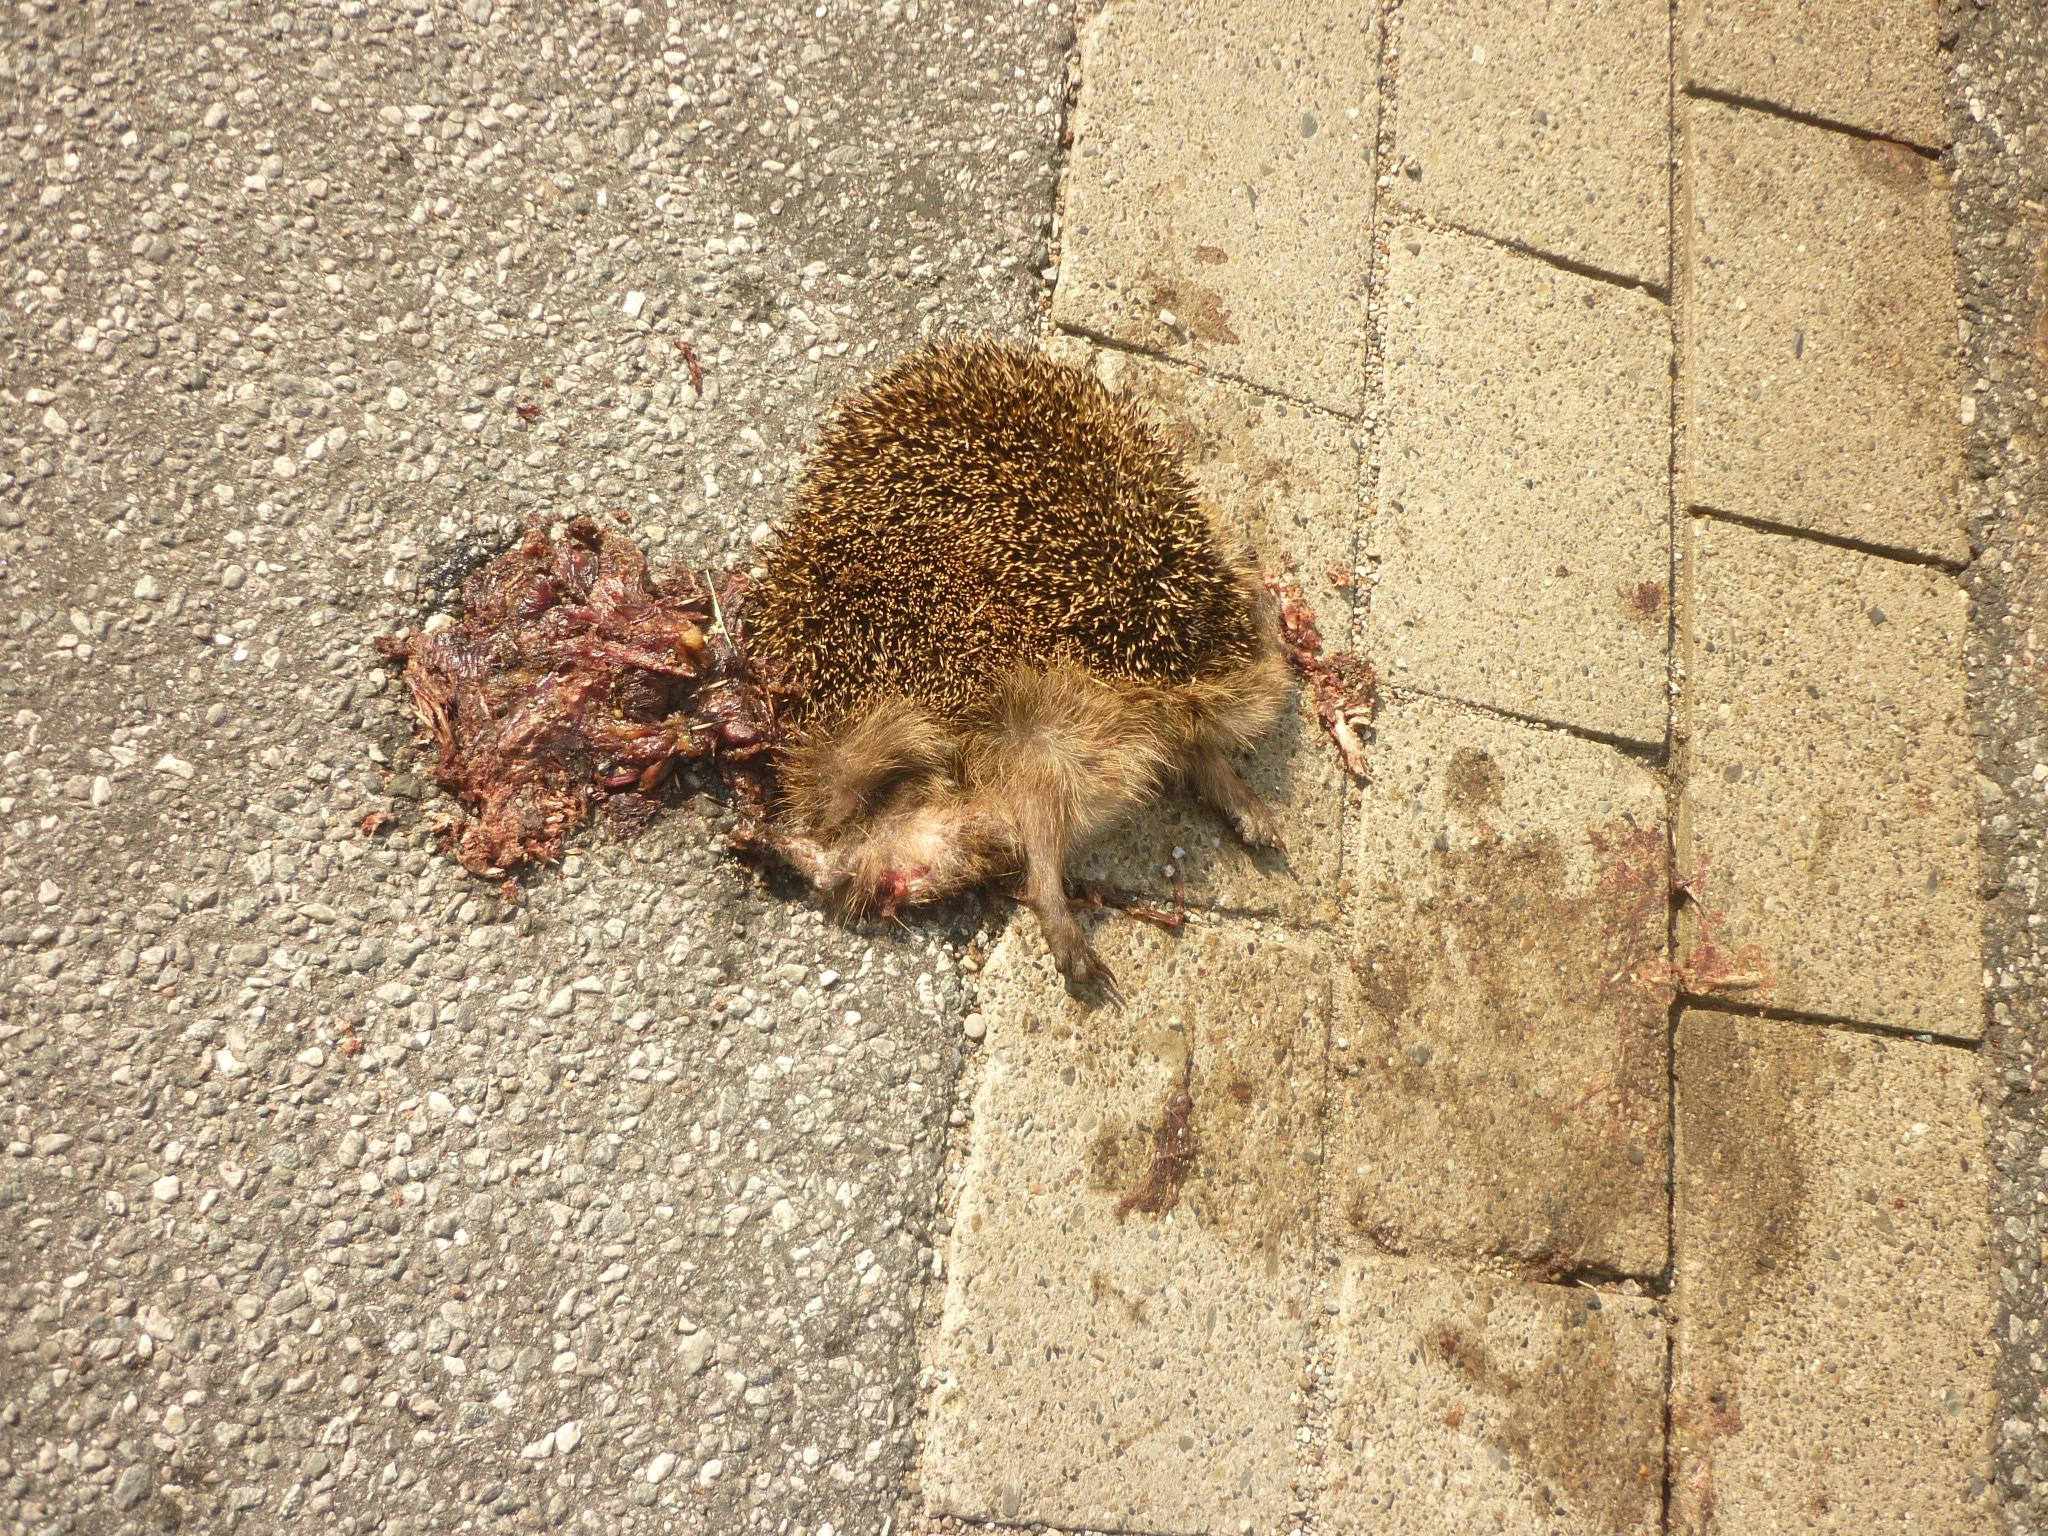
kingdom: Animalia
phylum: Chordata
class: Mammalia
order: Erinaceomorpha
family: Erinaceidae
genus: Erinaceus
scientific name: Erinaceus
